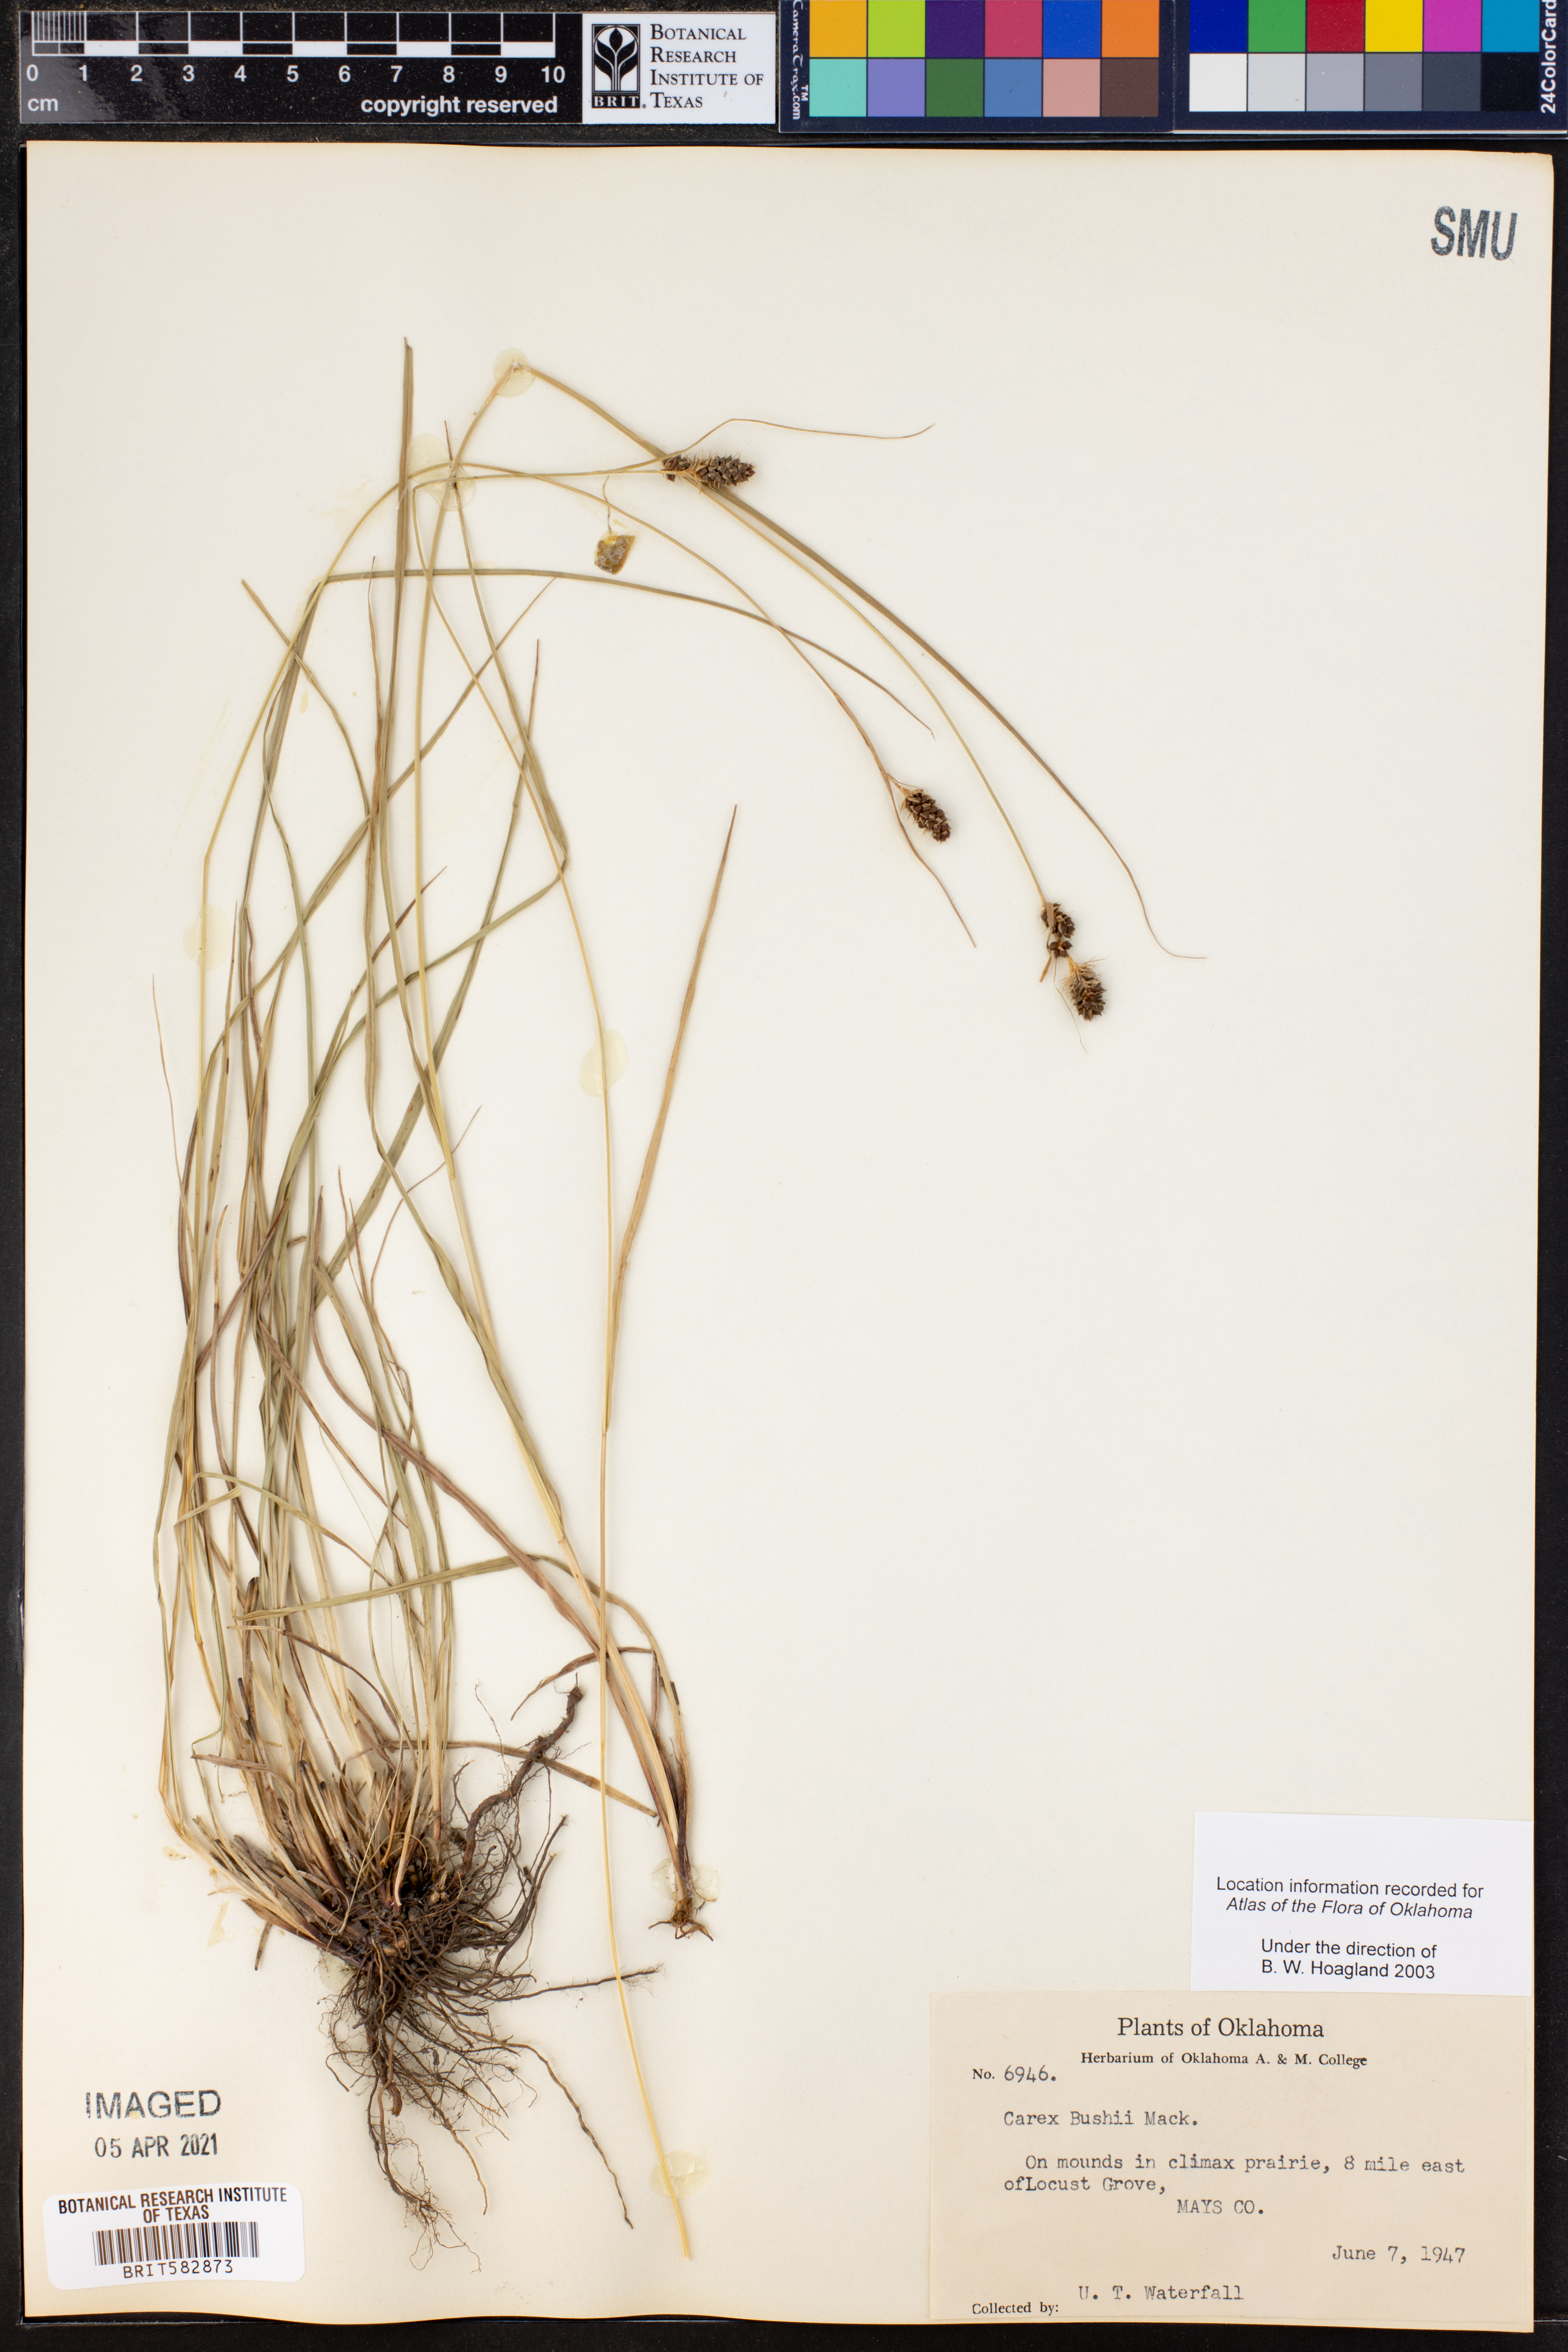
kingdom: Plantae
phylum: Tracheophyta
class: Liliopsida
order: Poales
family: Cyperaceae
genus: Carex
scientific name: Carex bushii
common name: Bush's sedge
